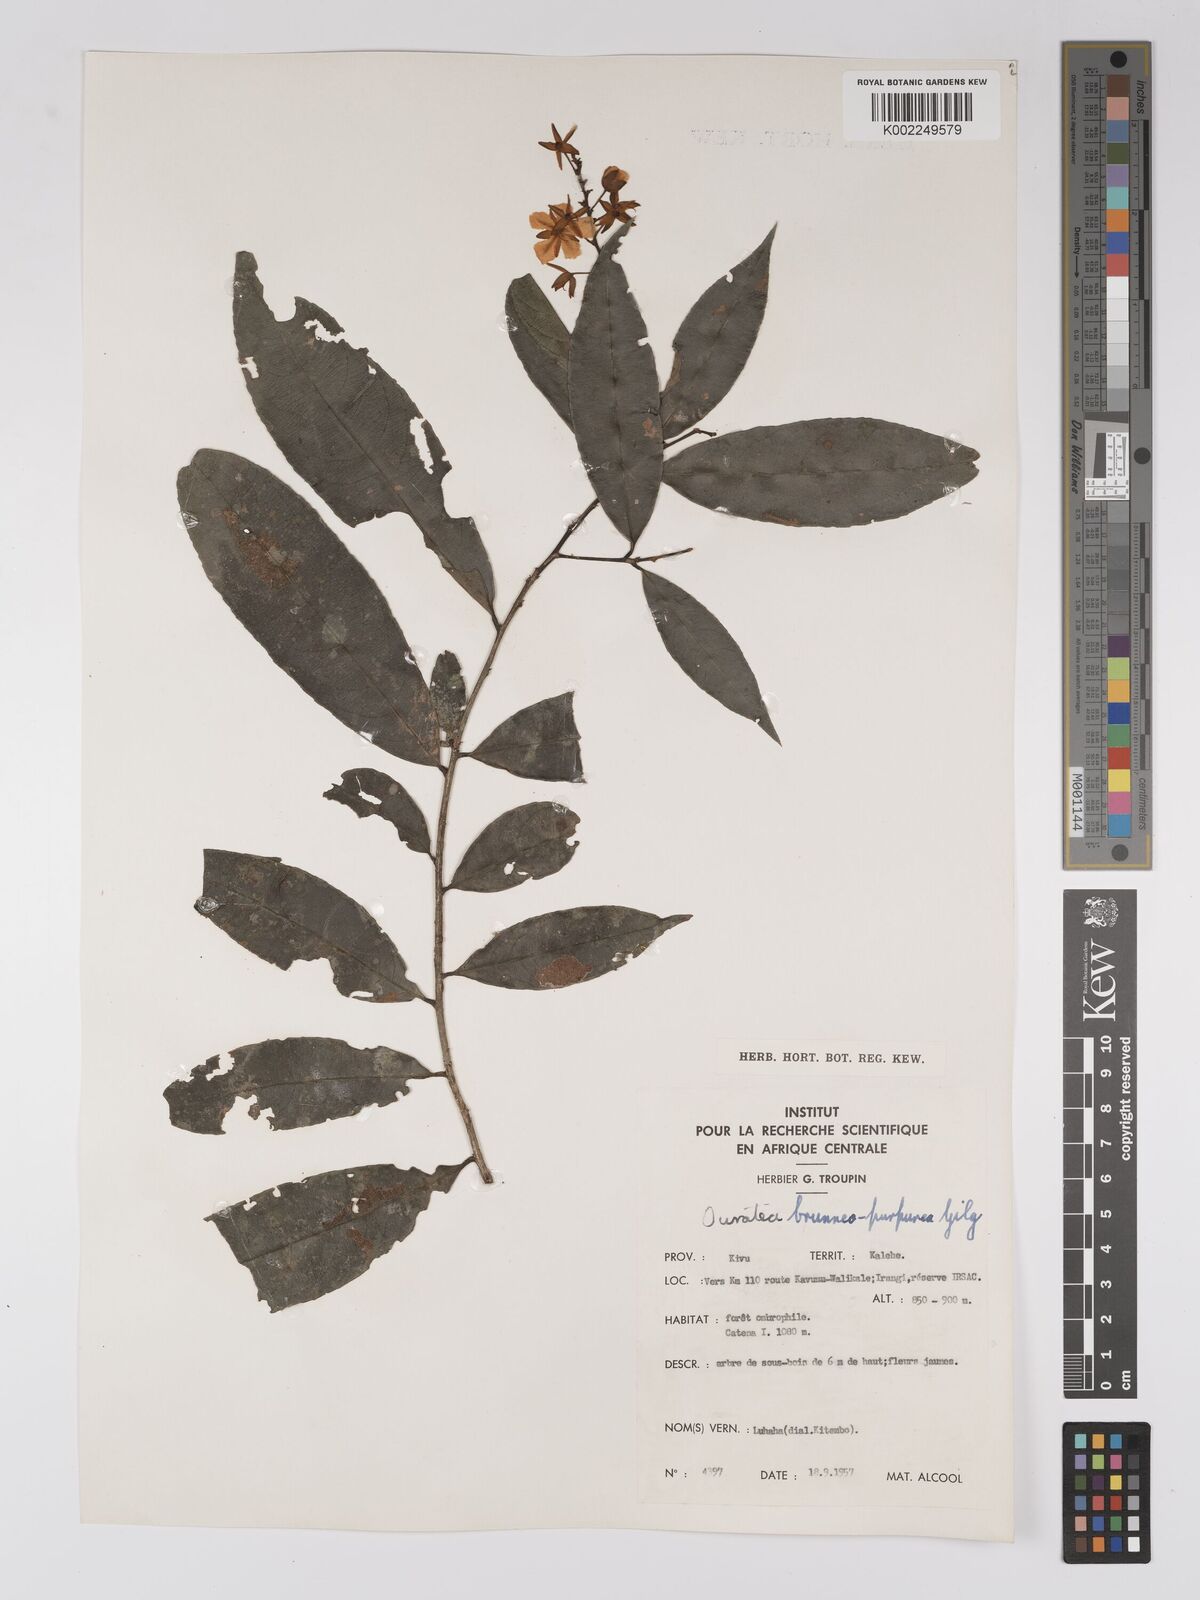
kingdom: Plantae
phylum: Tracheophyta
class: Magnoliopsida
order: Malpighiales
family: Ochnaceae
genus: Campylospermum
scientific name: Campylospermum reticulatum
